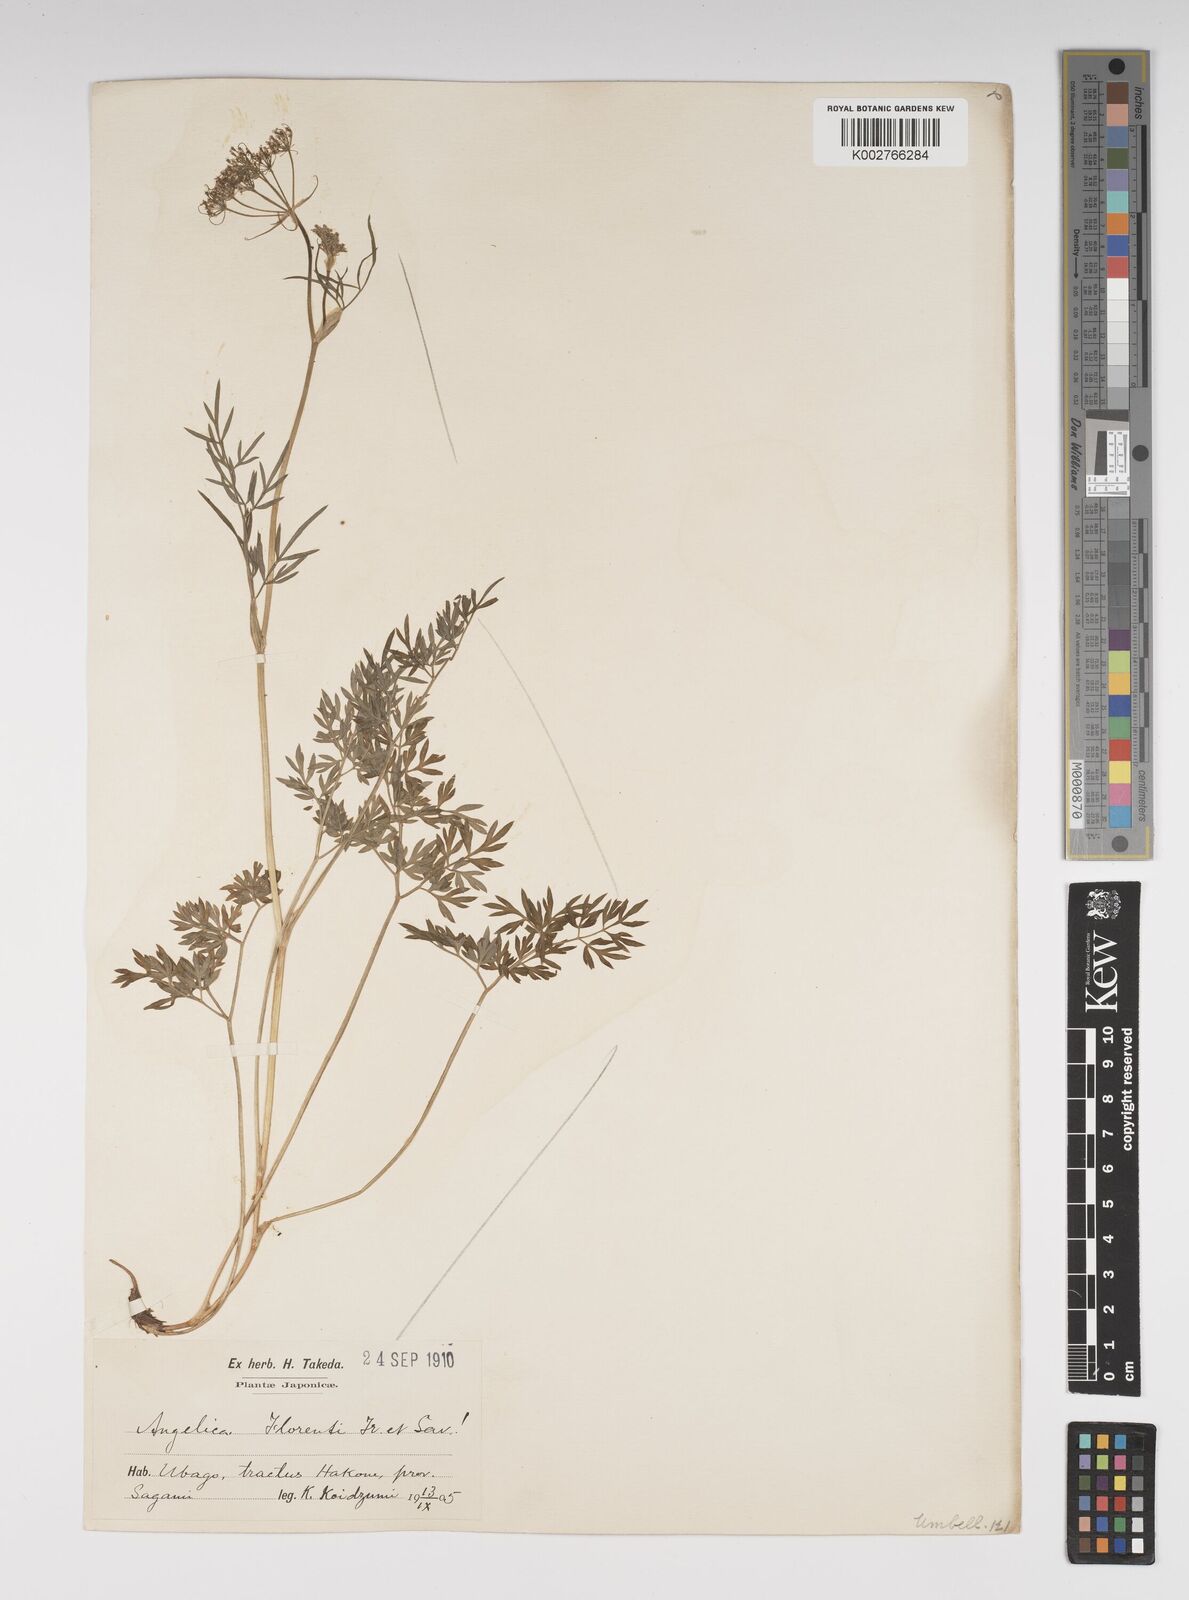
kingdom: Plantae
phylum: Tracheophyta
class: Magnoliopsida
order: Apiales
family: Apiaceae
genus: Ostericum
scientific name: Ostericum florenti
